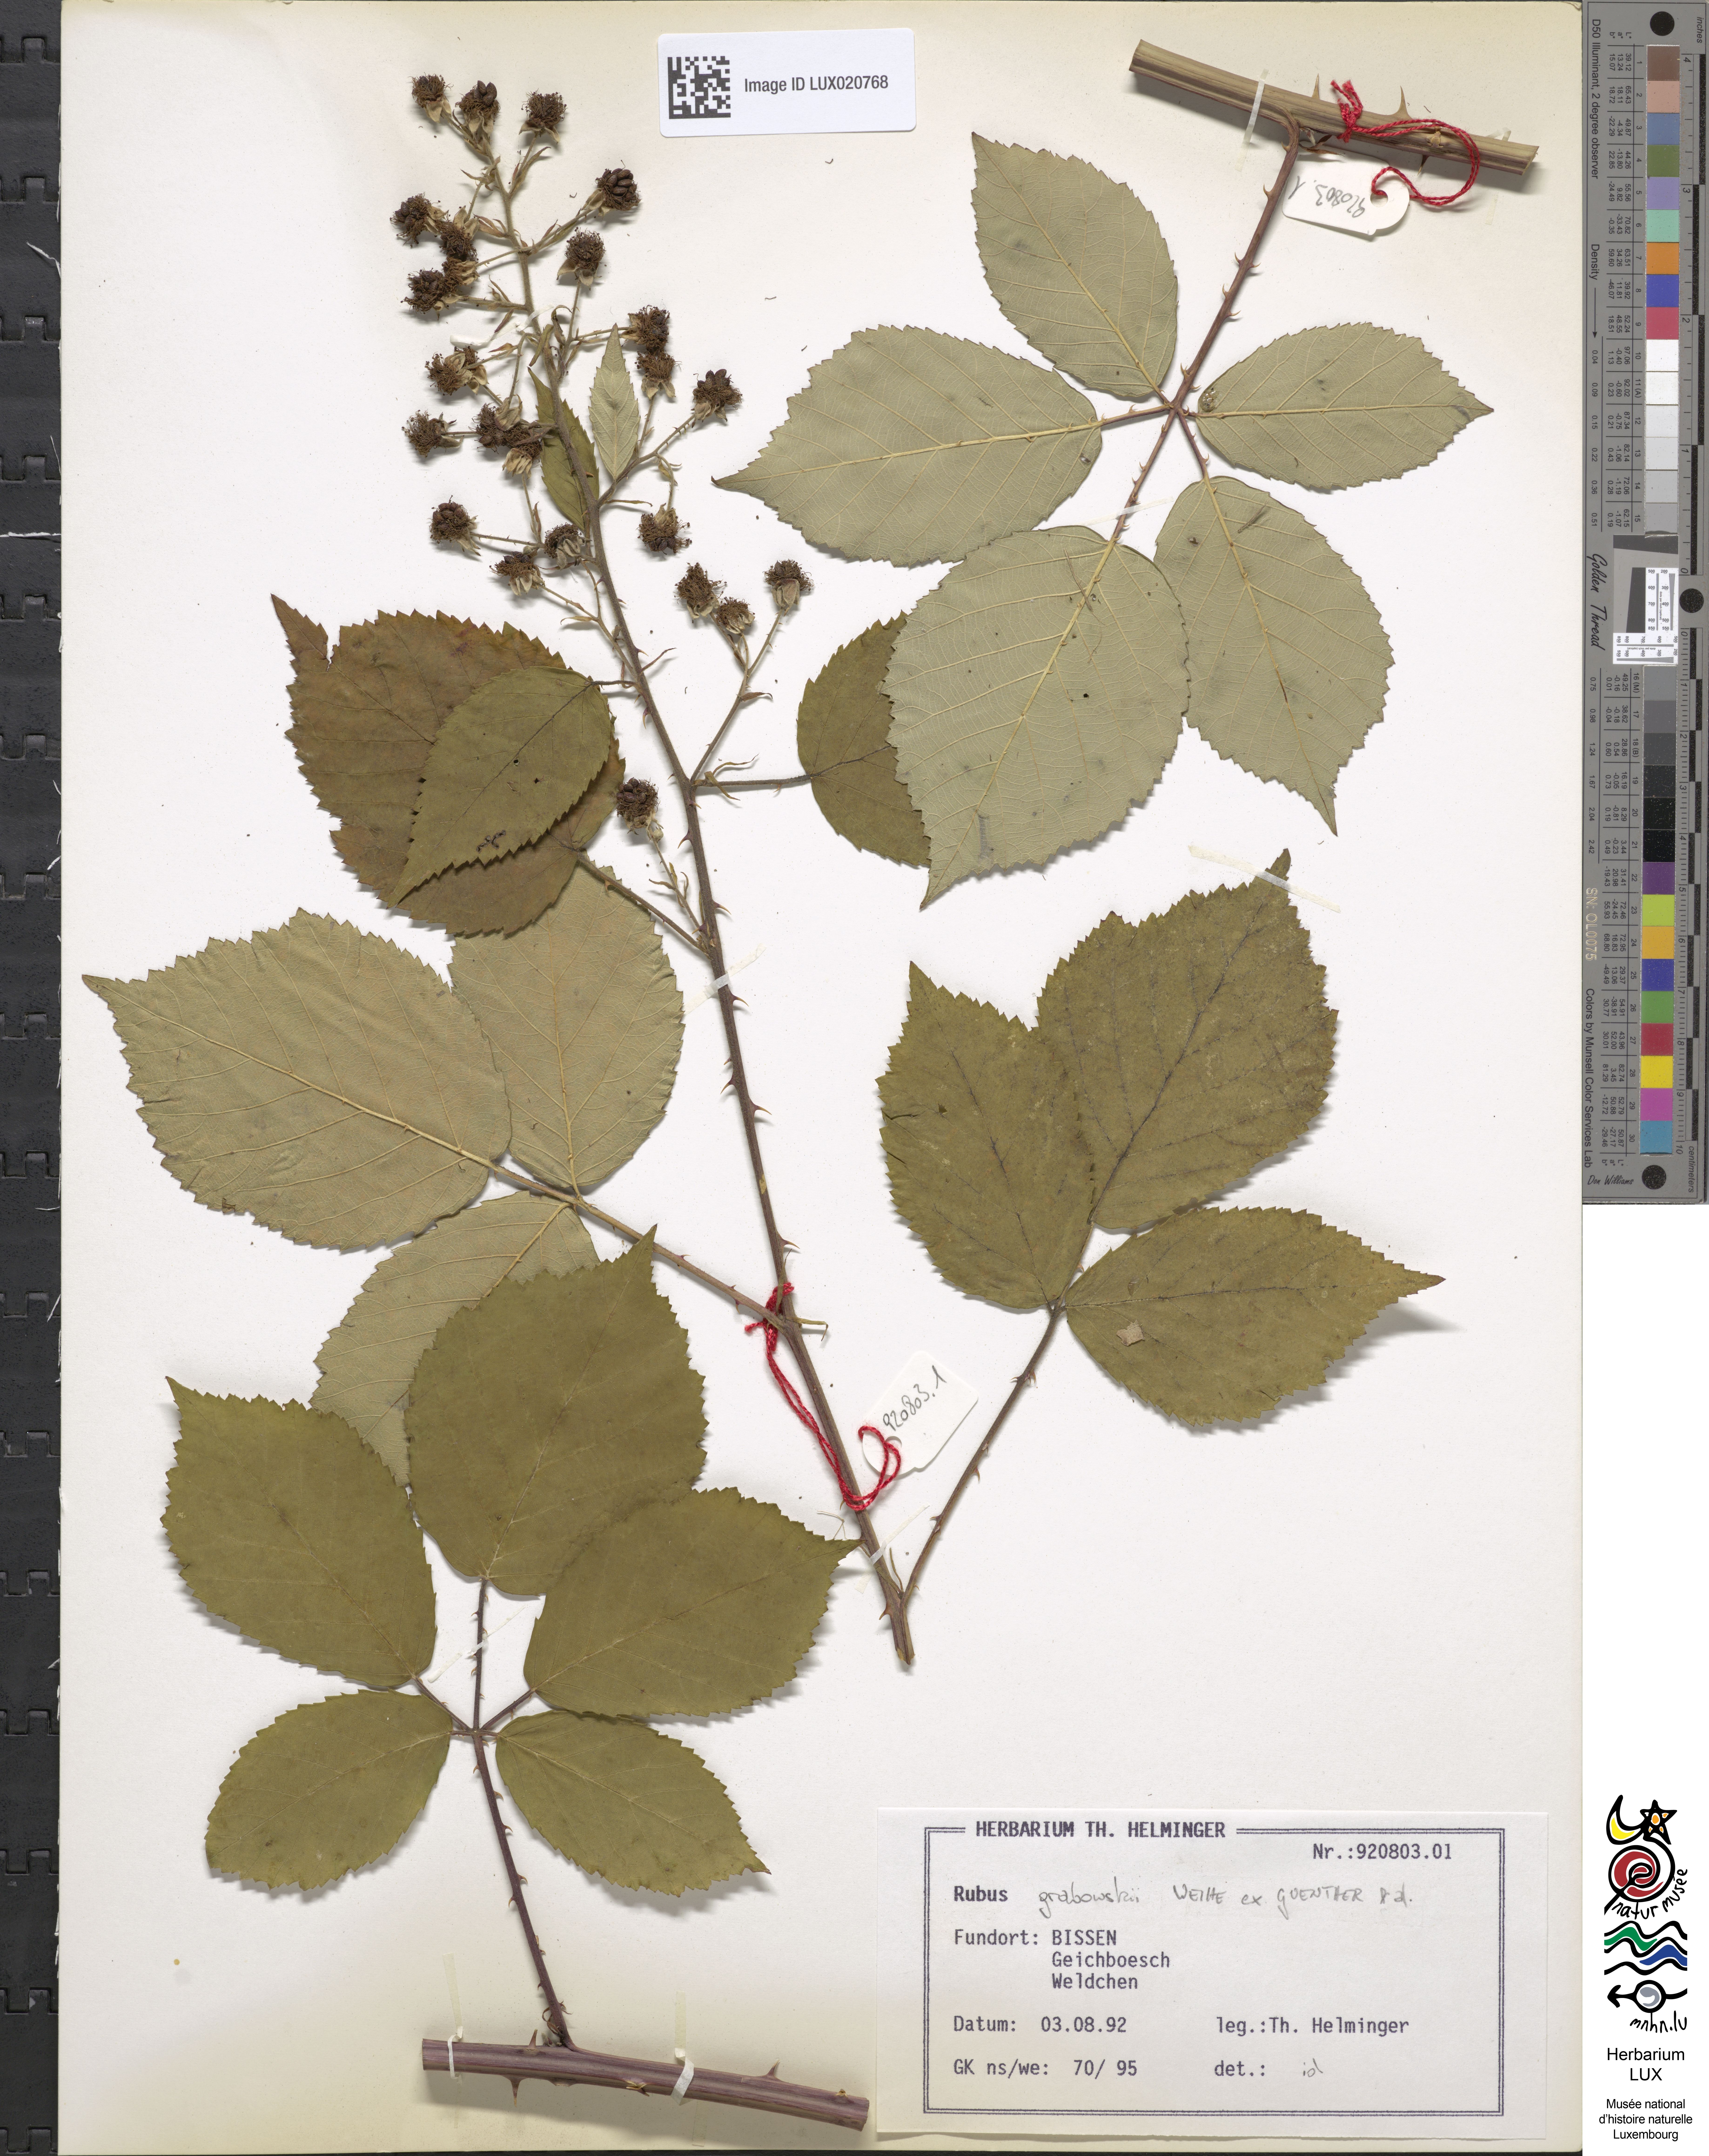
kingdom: Plantae
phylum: Tracheophyta
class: Magnoliopsida
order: Rosales
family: Rosaceae
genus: Rubus
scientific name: Rubus grabowskii
